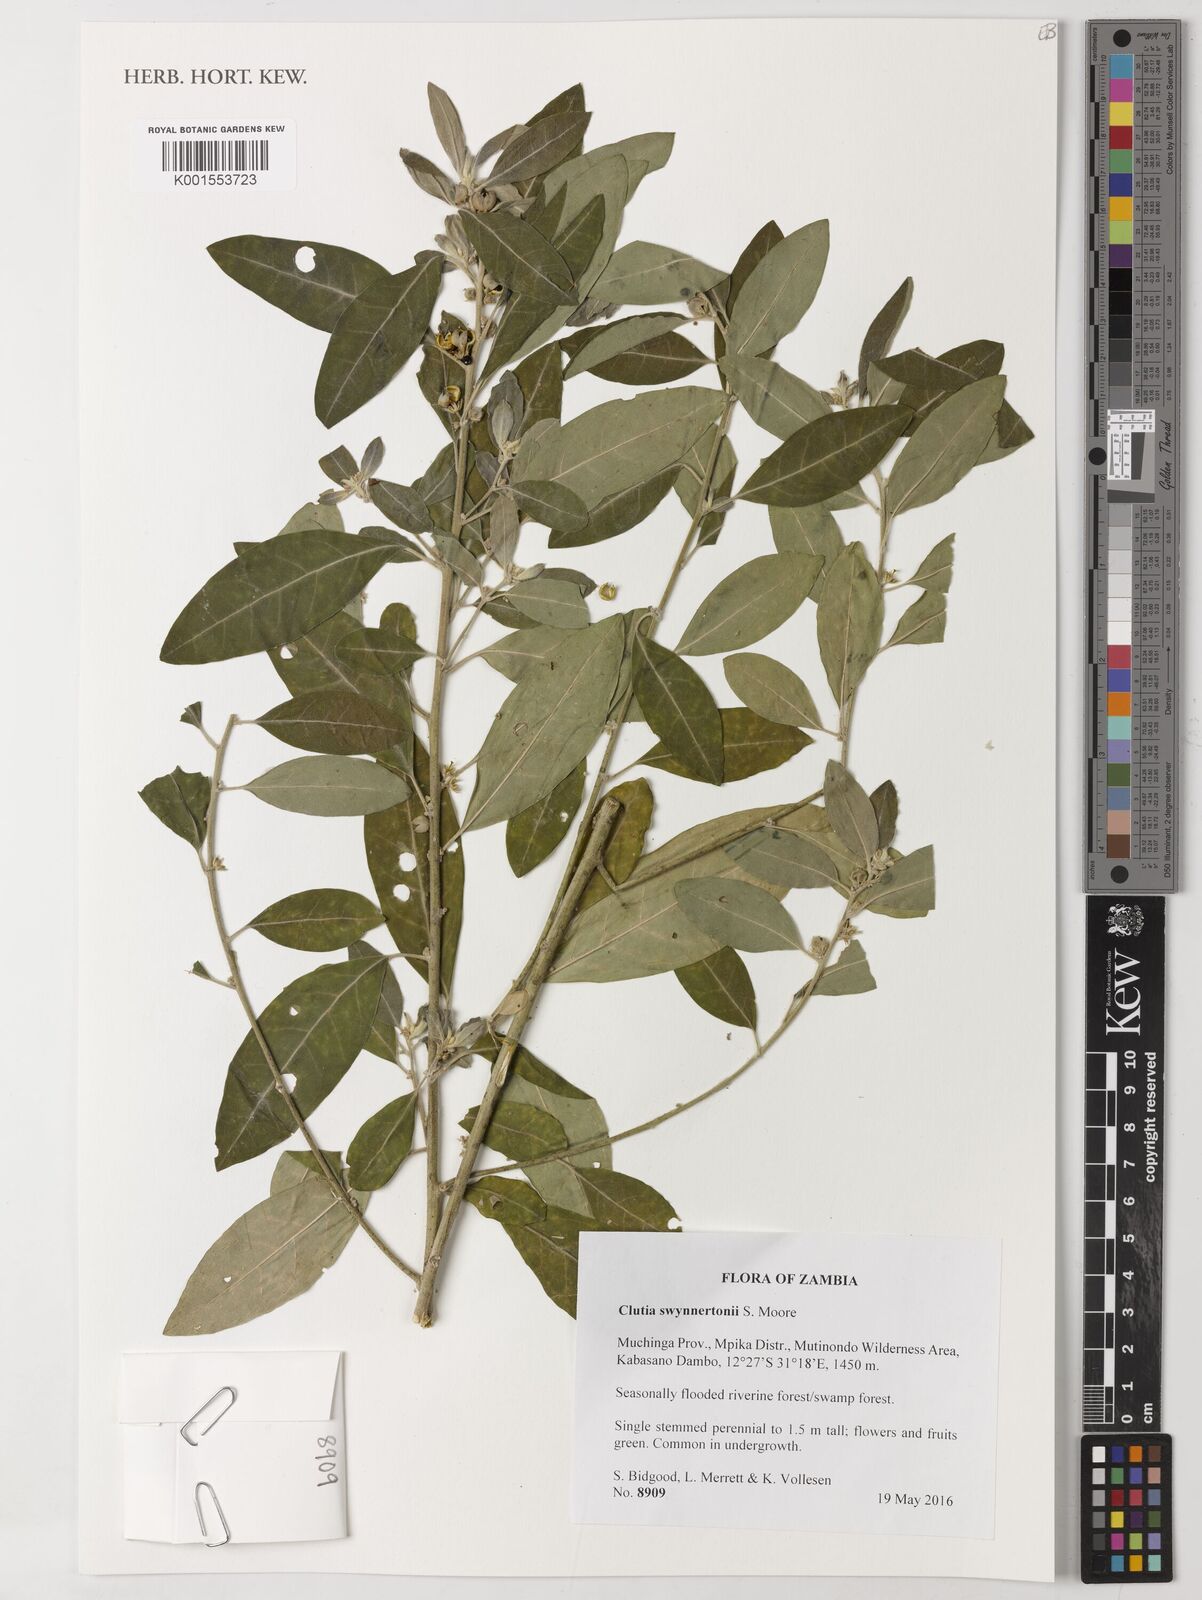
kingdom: Plantae
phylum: Tracheophyta
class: Magnoliopsida
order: Malpighiales
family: Peraceae
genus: Clutia
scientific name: Clutia swynnertonii
